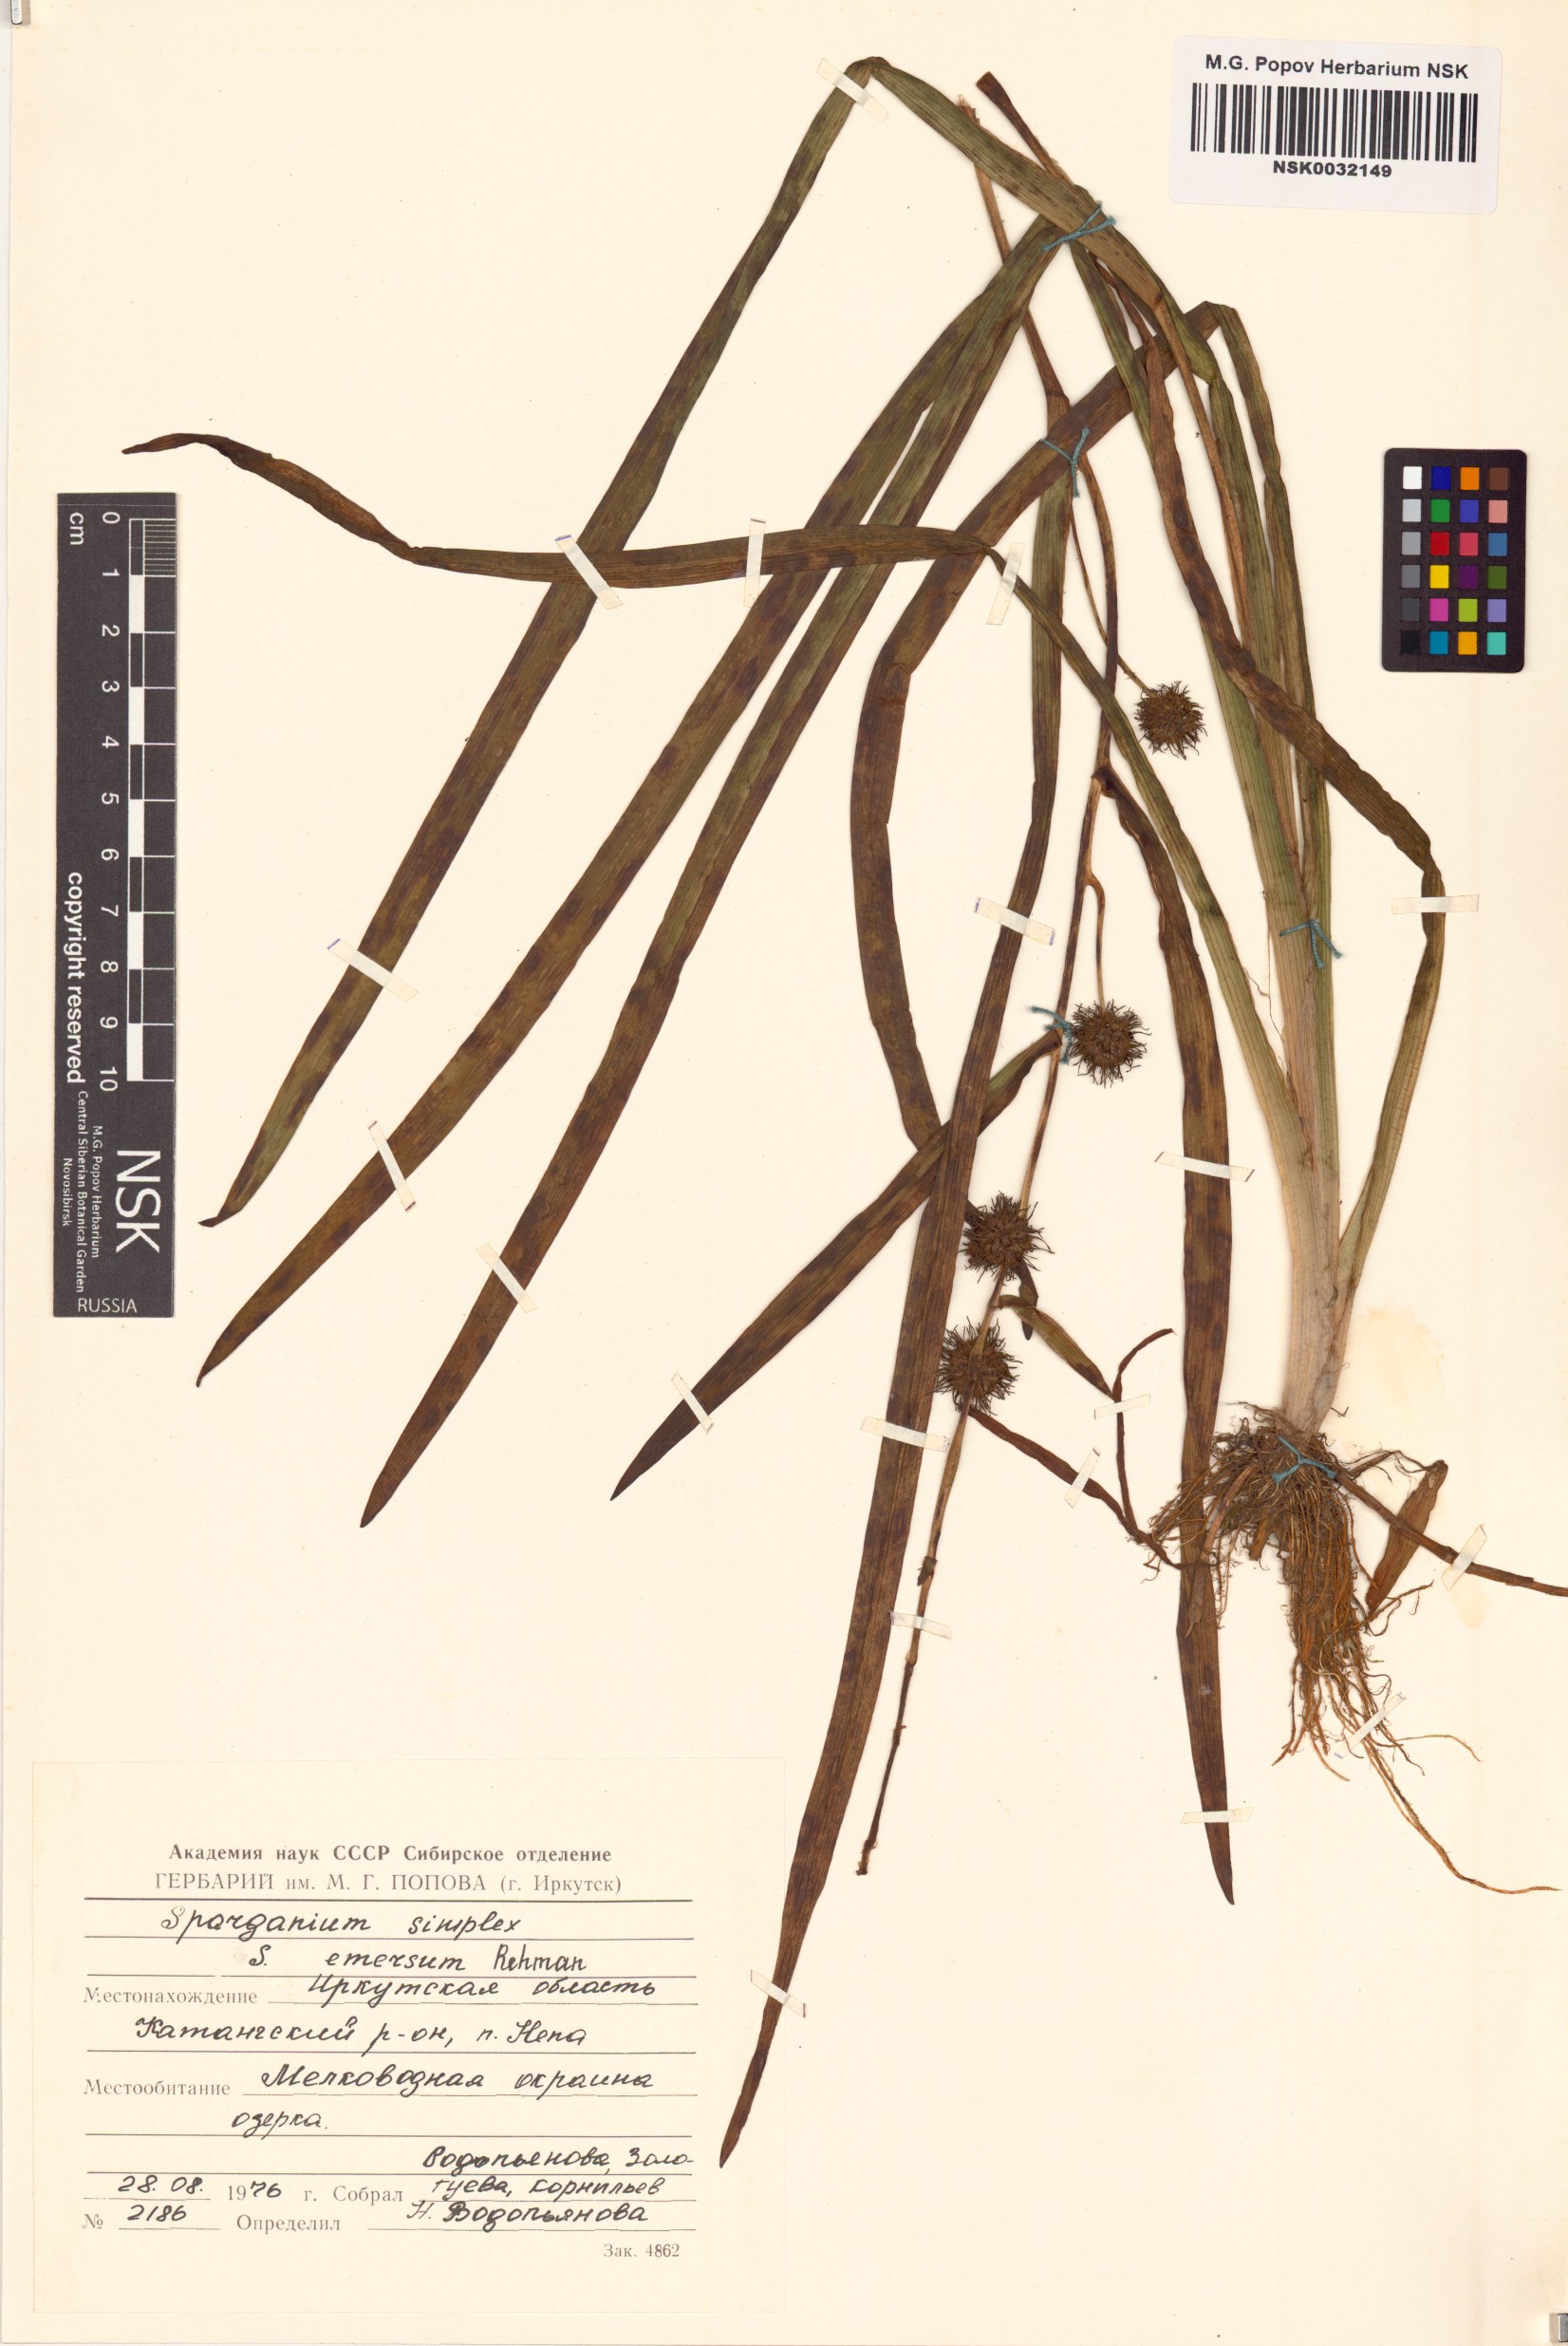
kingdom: Plantae
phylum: Tracheophyta
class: Liliopsida
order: Poales
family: Typhaceae
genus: Sparganium
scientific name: Sparganium emersum
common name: Unbranched bur-reed
